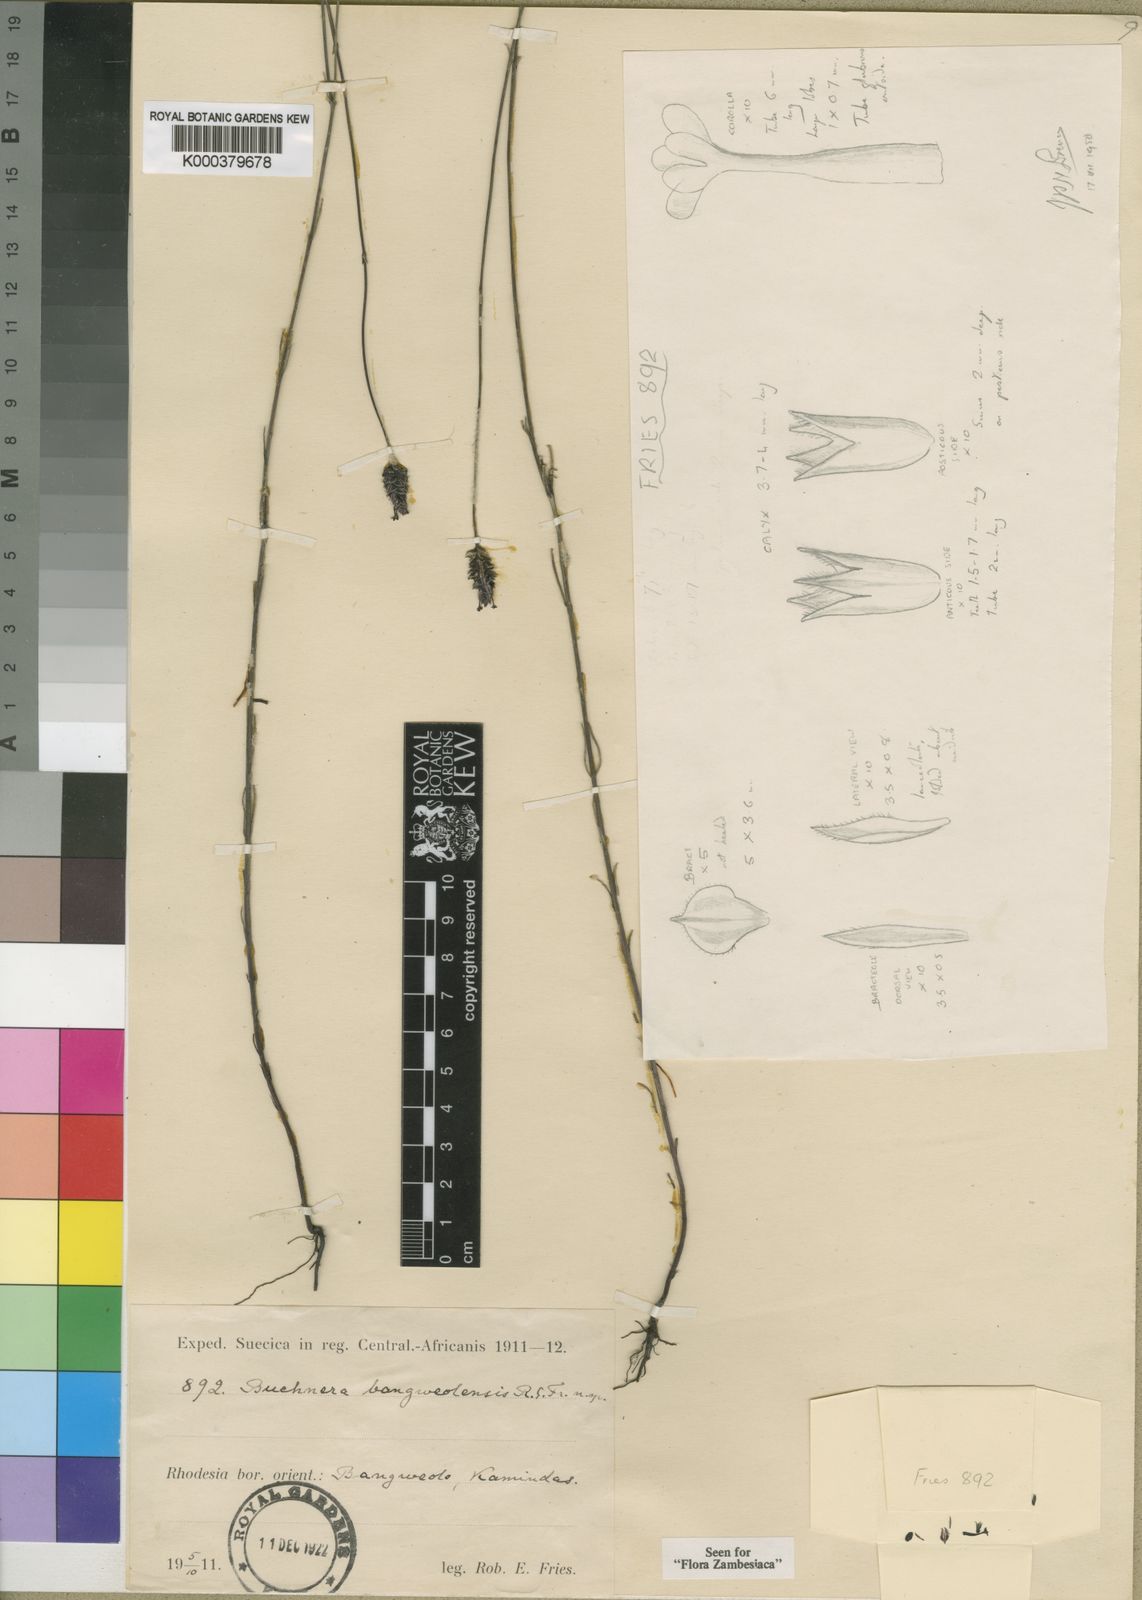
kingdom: Plantae
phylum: Tracheophyta
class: Magnoliopsida
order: Lamiales
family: Orobanchaceae
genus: Buchnera
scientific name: Buchnera bangweolensis
